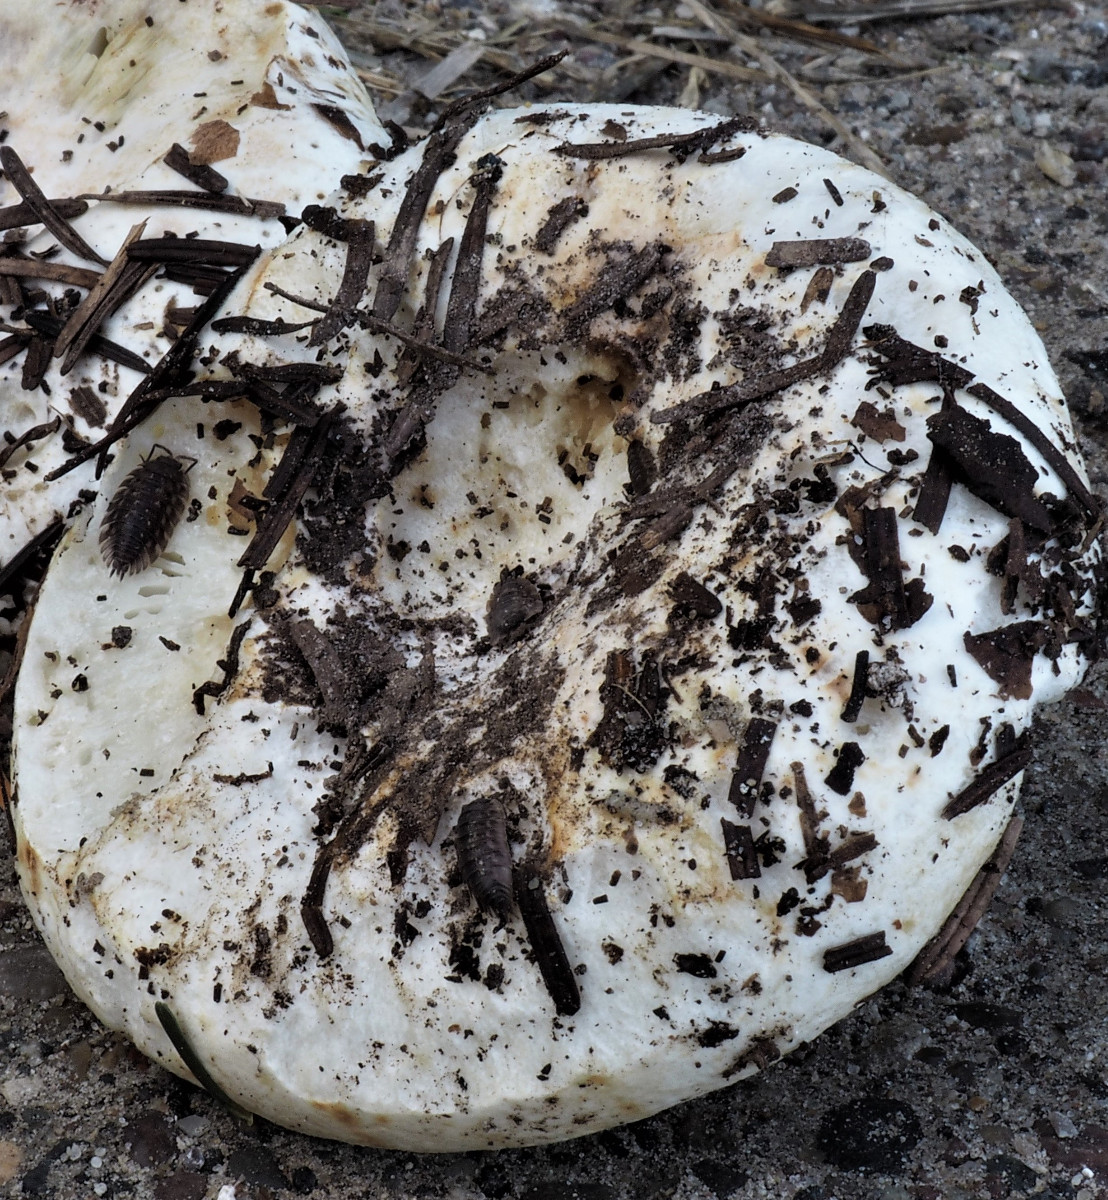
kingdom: Fungi
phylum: Basidiomycota
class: Agaricomycetes
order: Russulales
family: Russulaceae
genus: Russula
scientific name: Russula chloroides
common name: grønhalset tragt-skørhat
